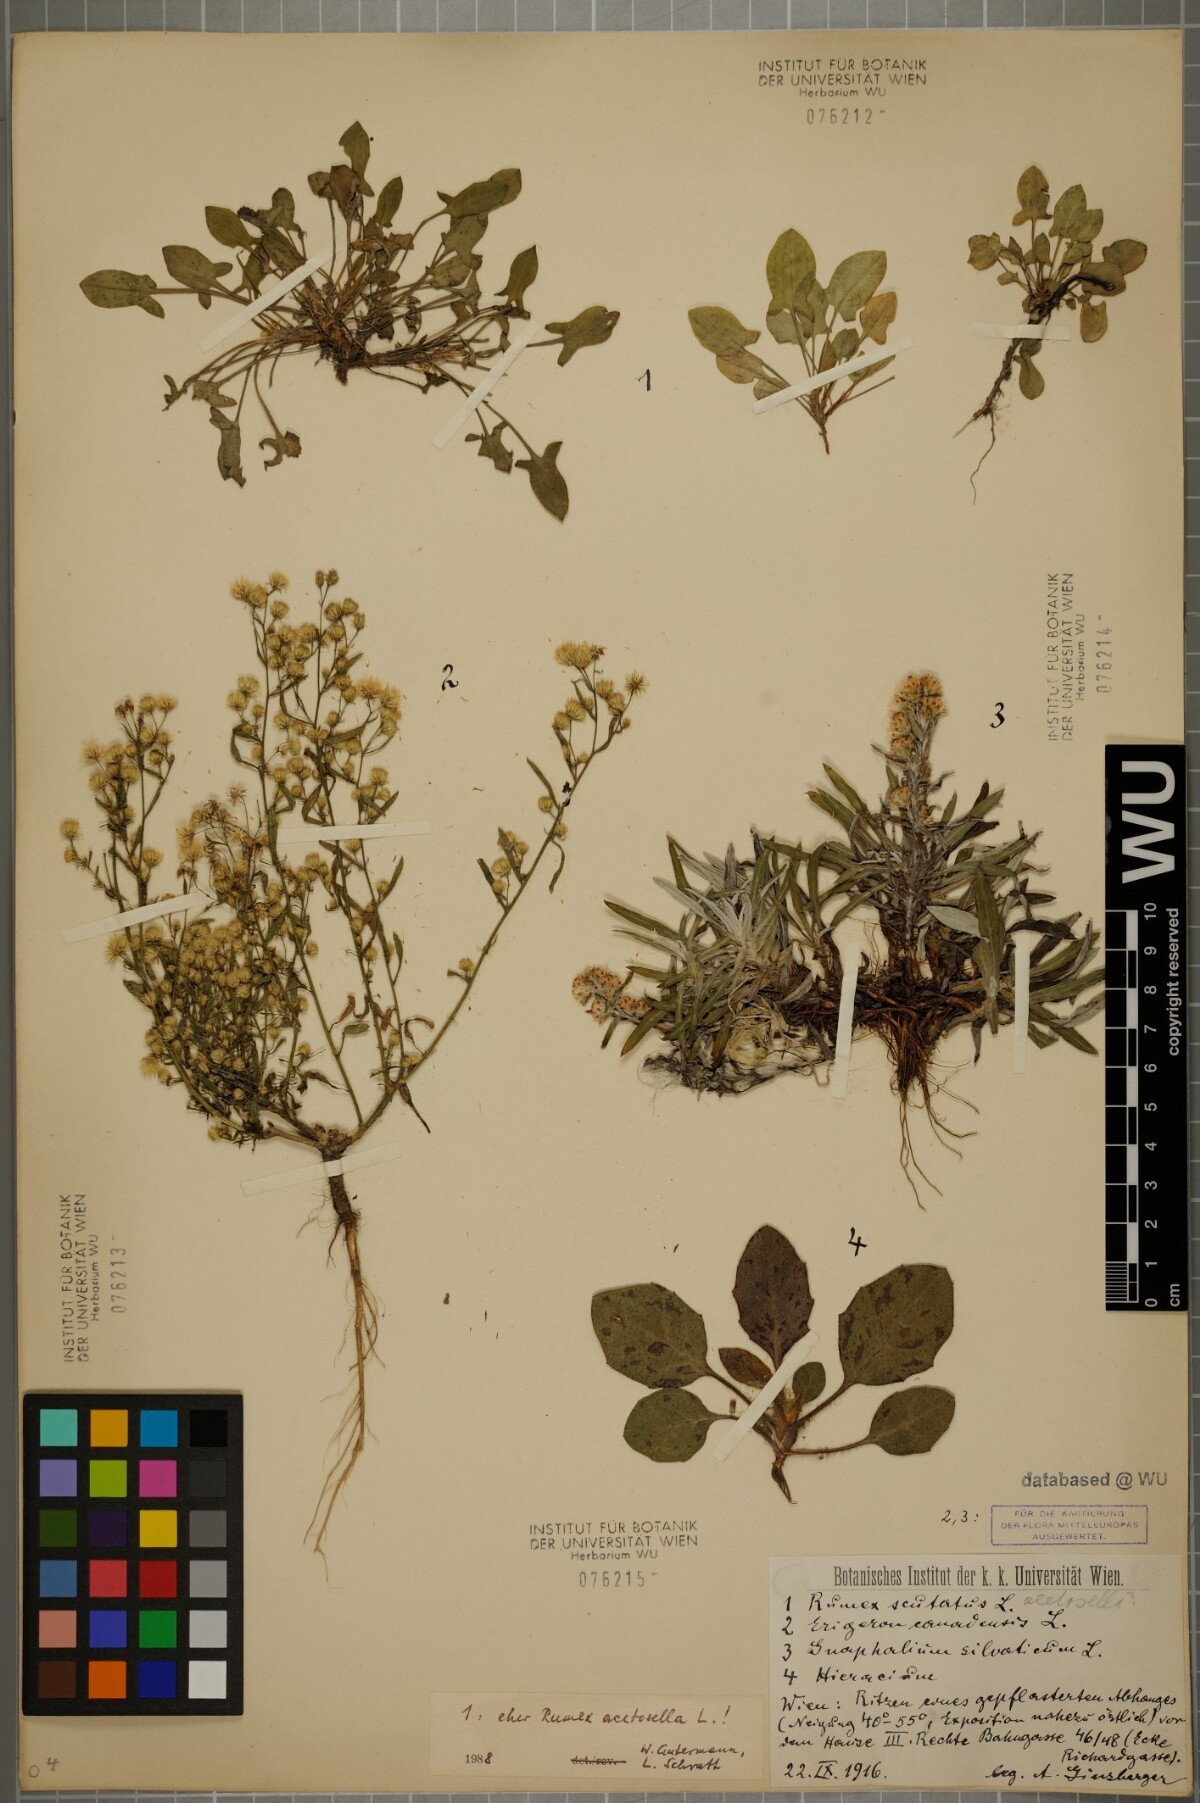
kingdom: Plantae
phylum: Tracheophyta
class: Magnoliopsida
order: Asterales
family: Asteraceae
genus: Erigeron
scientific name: Erigeron canadensis
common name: Canadian fleabane
